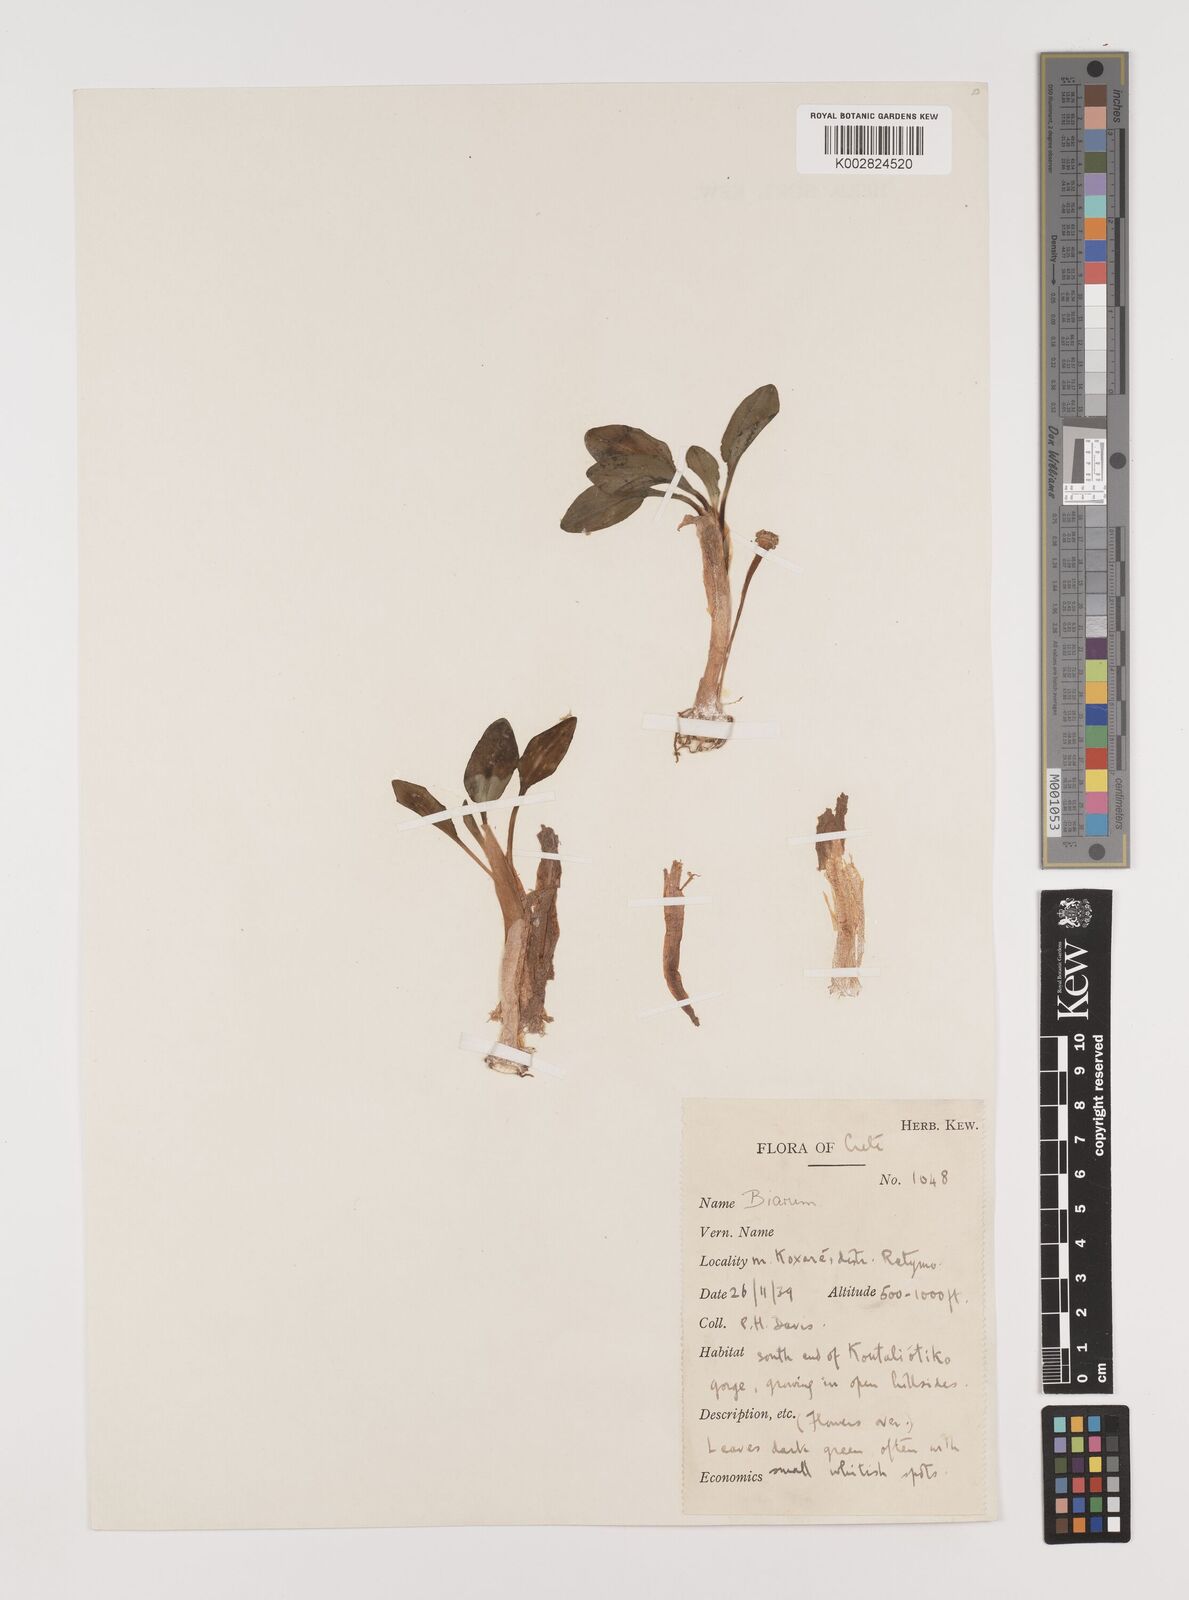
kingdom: Plantae
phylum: Tracheophyta
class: Liliopsida
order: Alismatales
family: Araceae
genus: Biarum
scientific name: Biarum davisii
